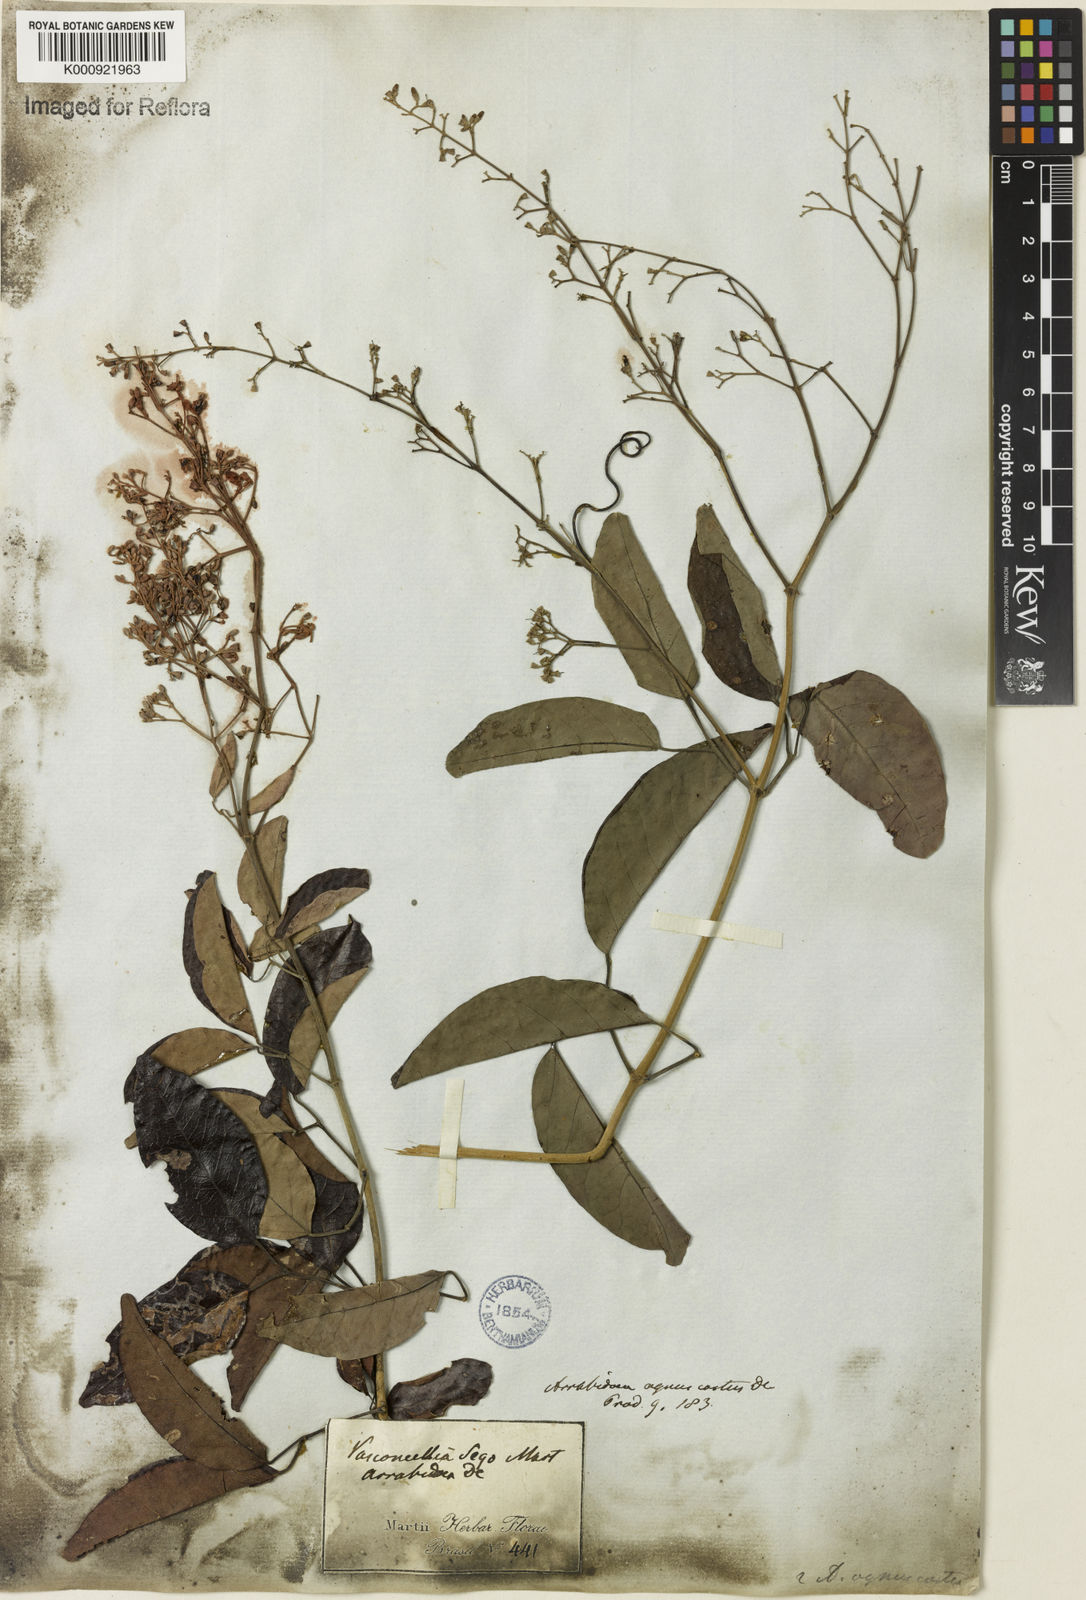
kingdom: Plantae
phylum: Tracheophyta
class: Magnoliopsida
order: Lamiales
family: Bignoniaceae
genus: Fridericia
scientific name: Fridericia rego
